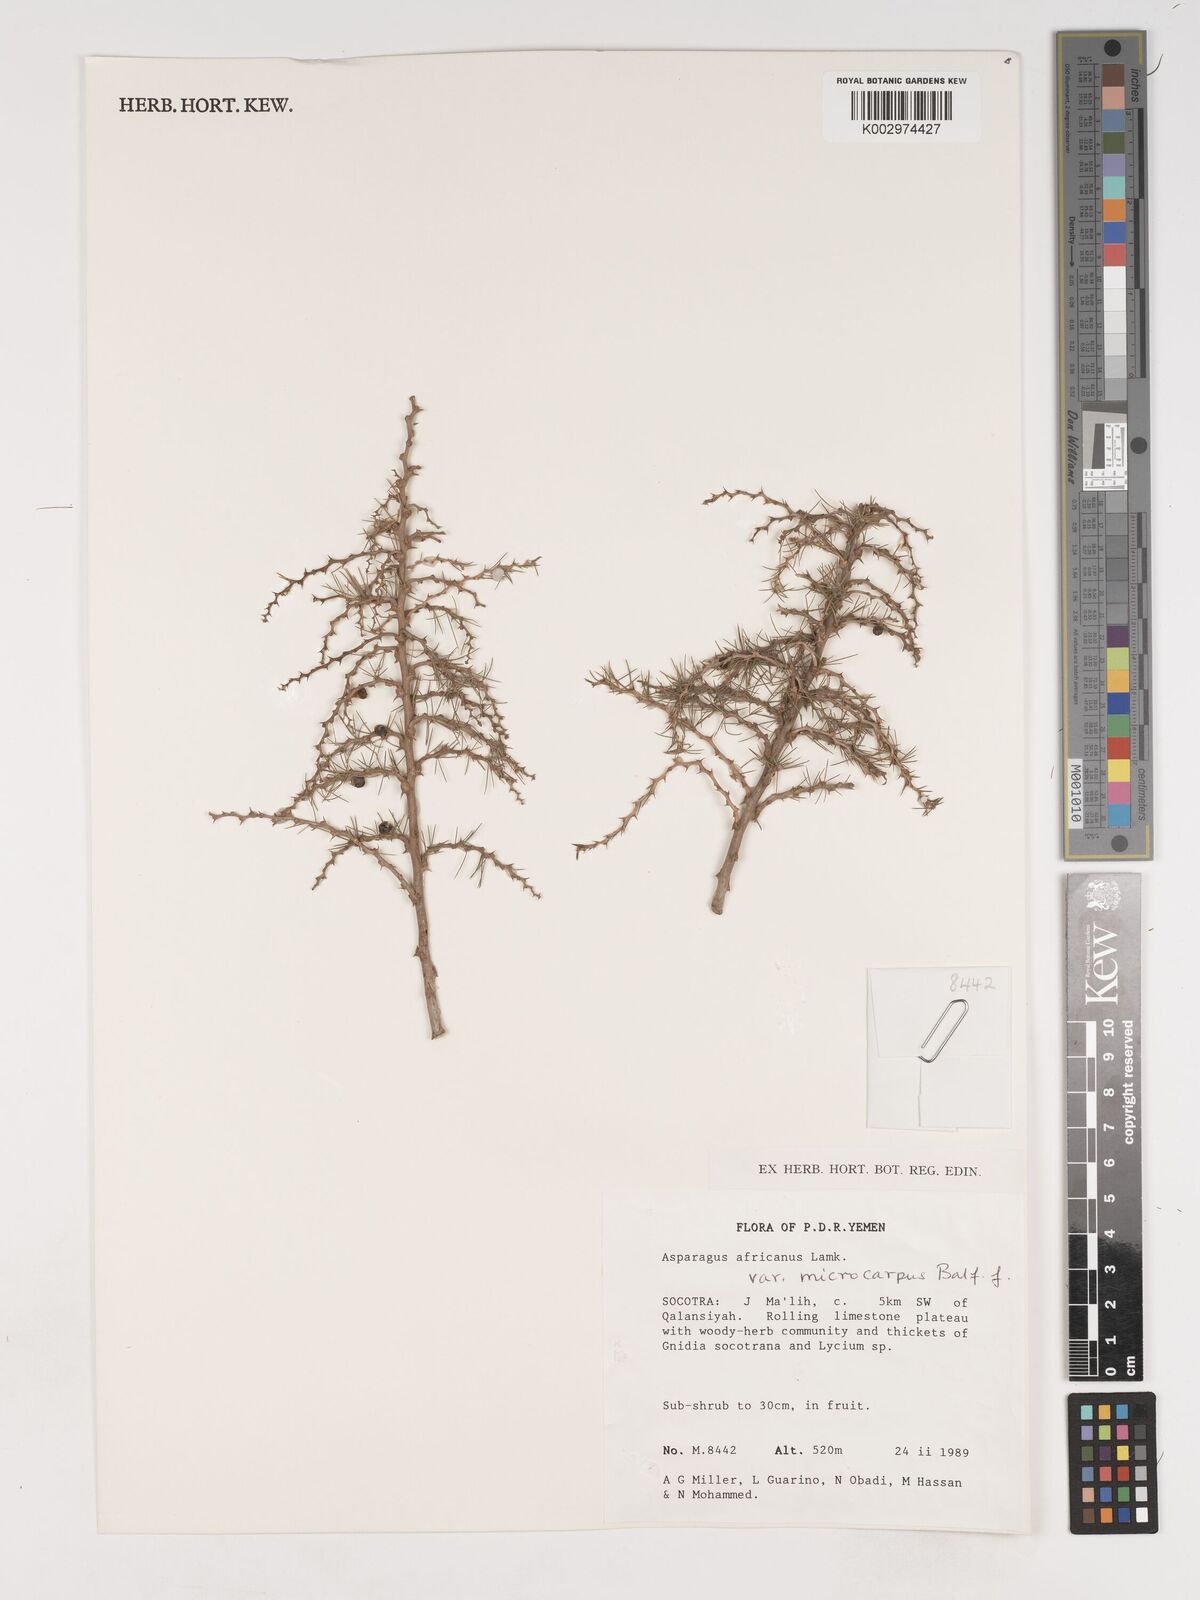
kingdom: Plantae
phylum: Tracheophyta
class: Liliopsida
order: Asparagales
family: Asparagaceae
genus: Asparagus
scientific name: Asparagus africanus
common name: Asparagus-fern
